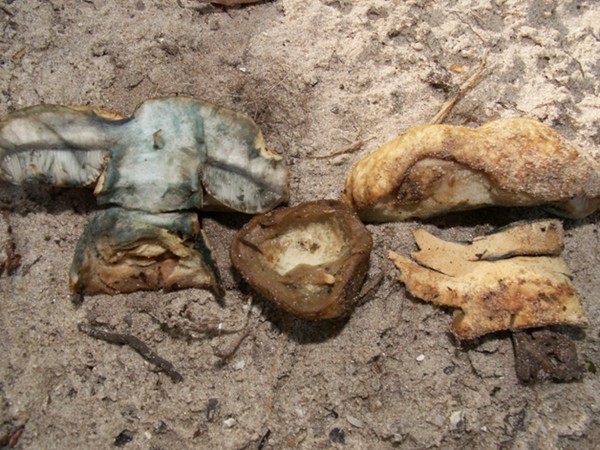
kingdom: Fungi
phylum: Basidiomycota
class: Agaricomycetes
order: Boletales
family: Gyroporaceae
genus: Gyroporus
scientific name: Gyroporus cyanescens
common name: blånende kammerrørhat
